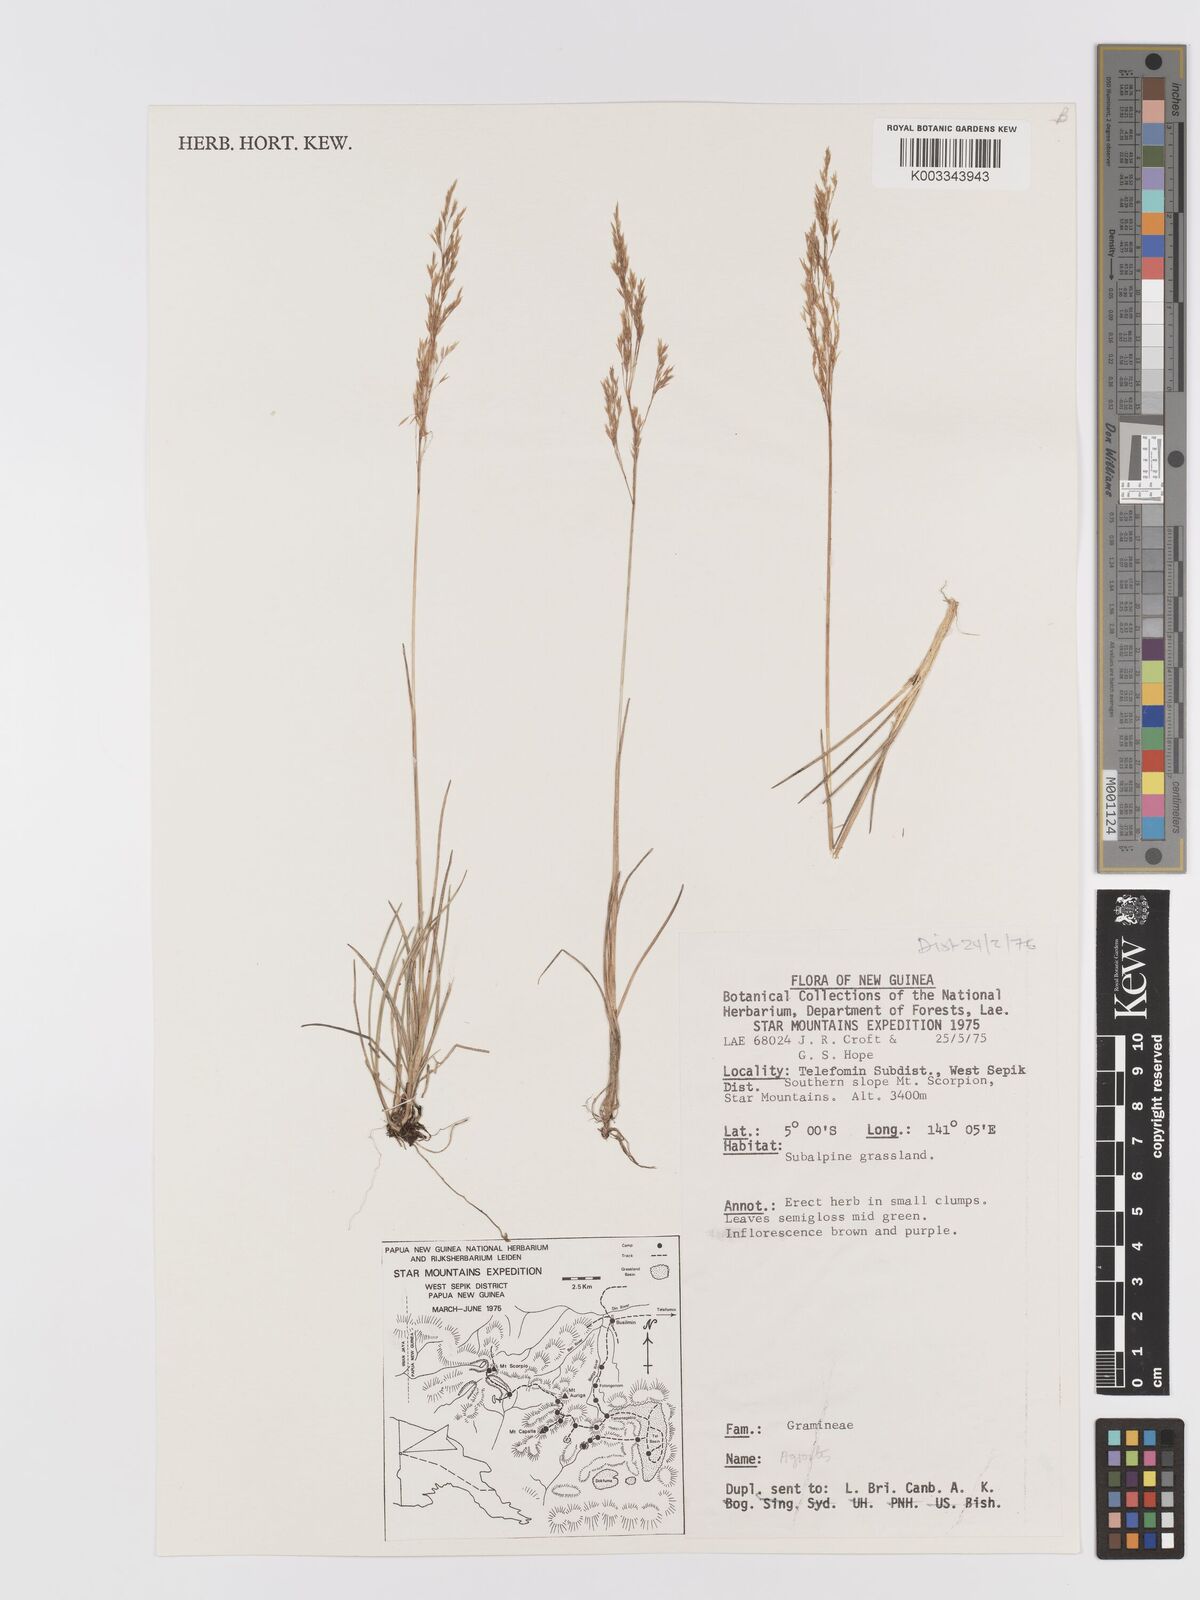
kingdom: Plantae
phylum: Tracheophyta
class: Liliopsida
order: Poales
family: Poaceae
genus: Agrostis
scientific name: Agrostis
